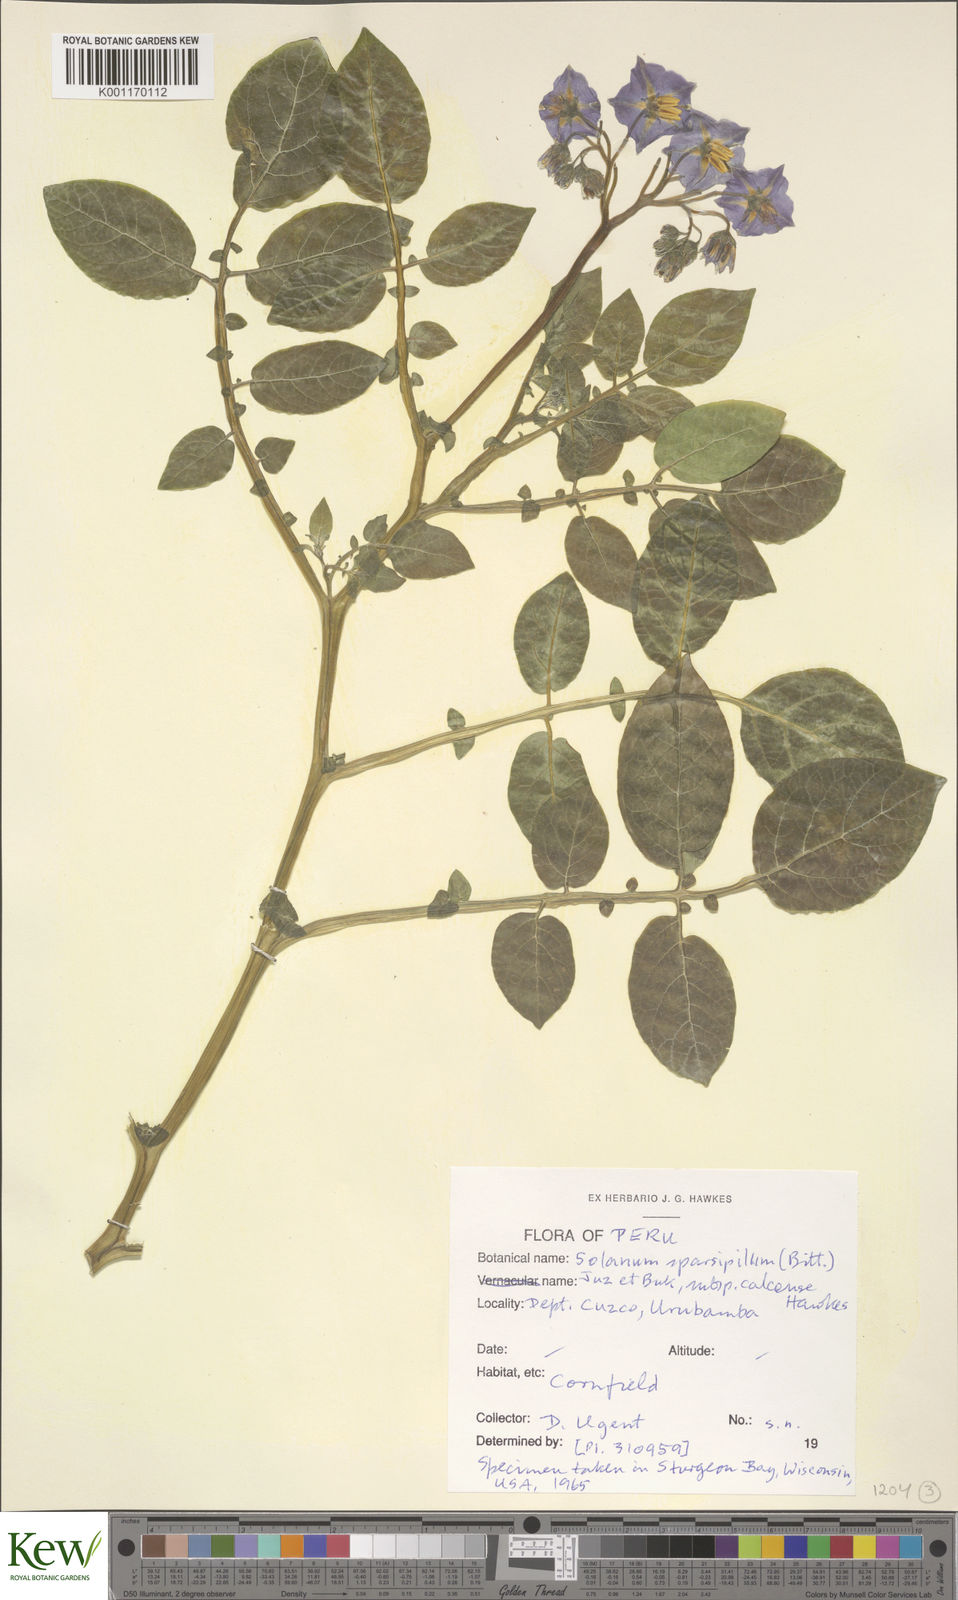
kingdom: Plantae
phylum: Tracheophyta
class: Magnoliopsida
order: Solanales
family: Solanaceae
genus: Solanum
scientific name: Solanum brevicaule
